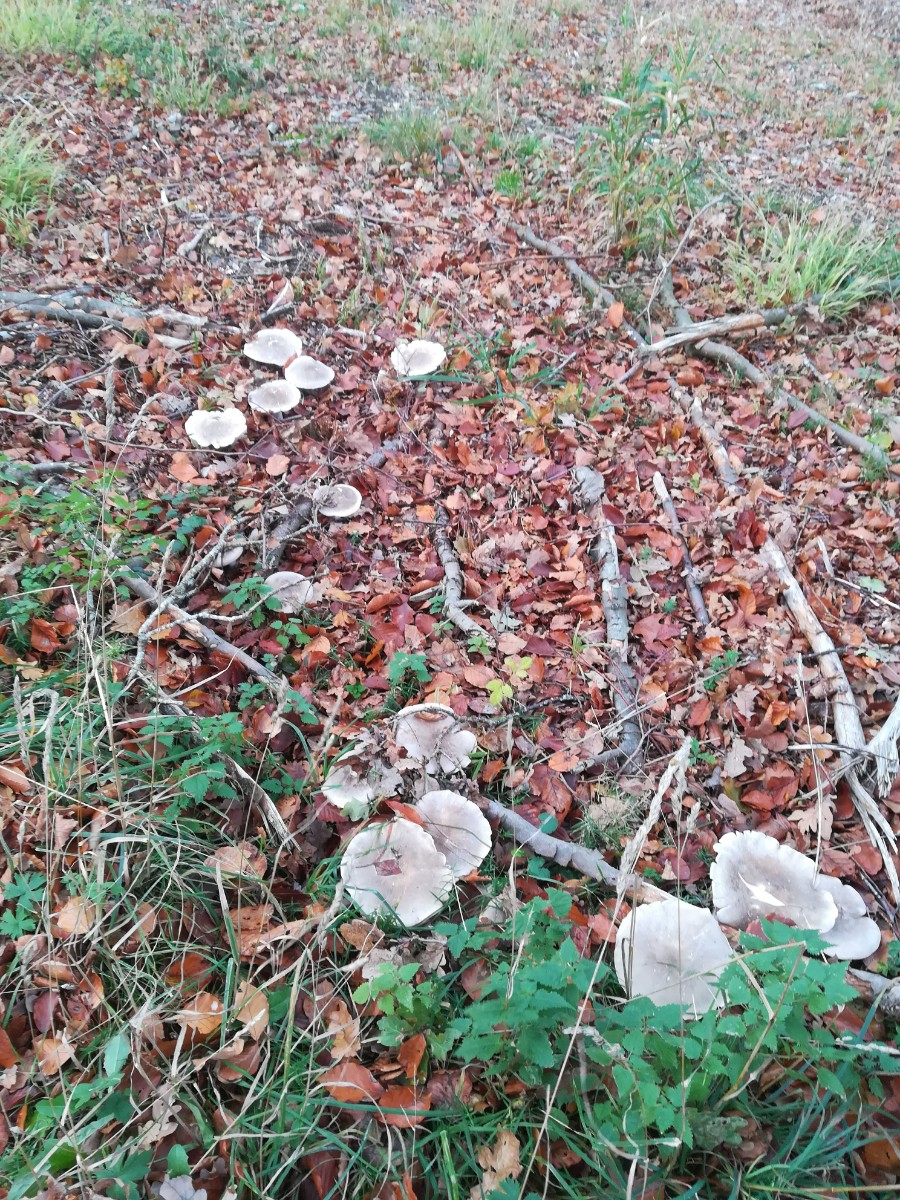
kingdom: Fungi
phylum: Basidiomycota
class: Agaricomycetes
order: Agaricales
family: Tricholomataceae
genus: Clitocybe
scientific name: Clitocybe nebularis
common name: tåge-tragthat
